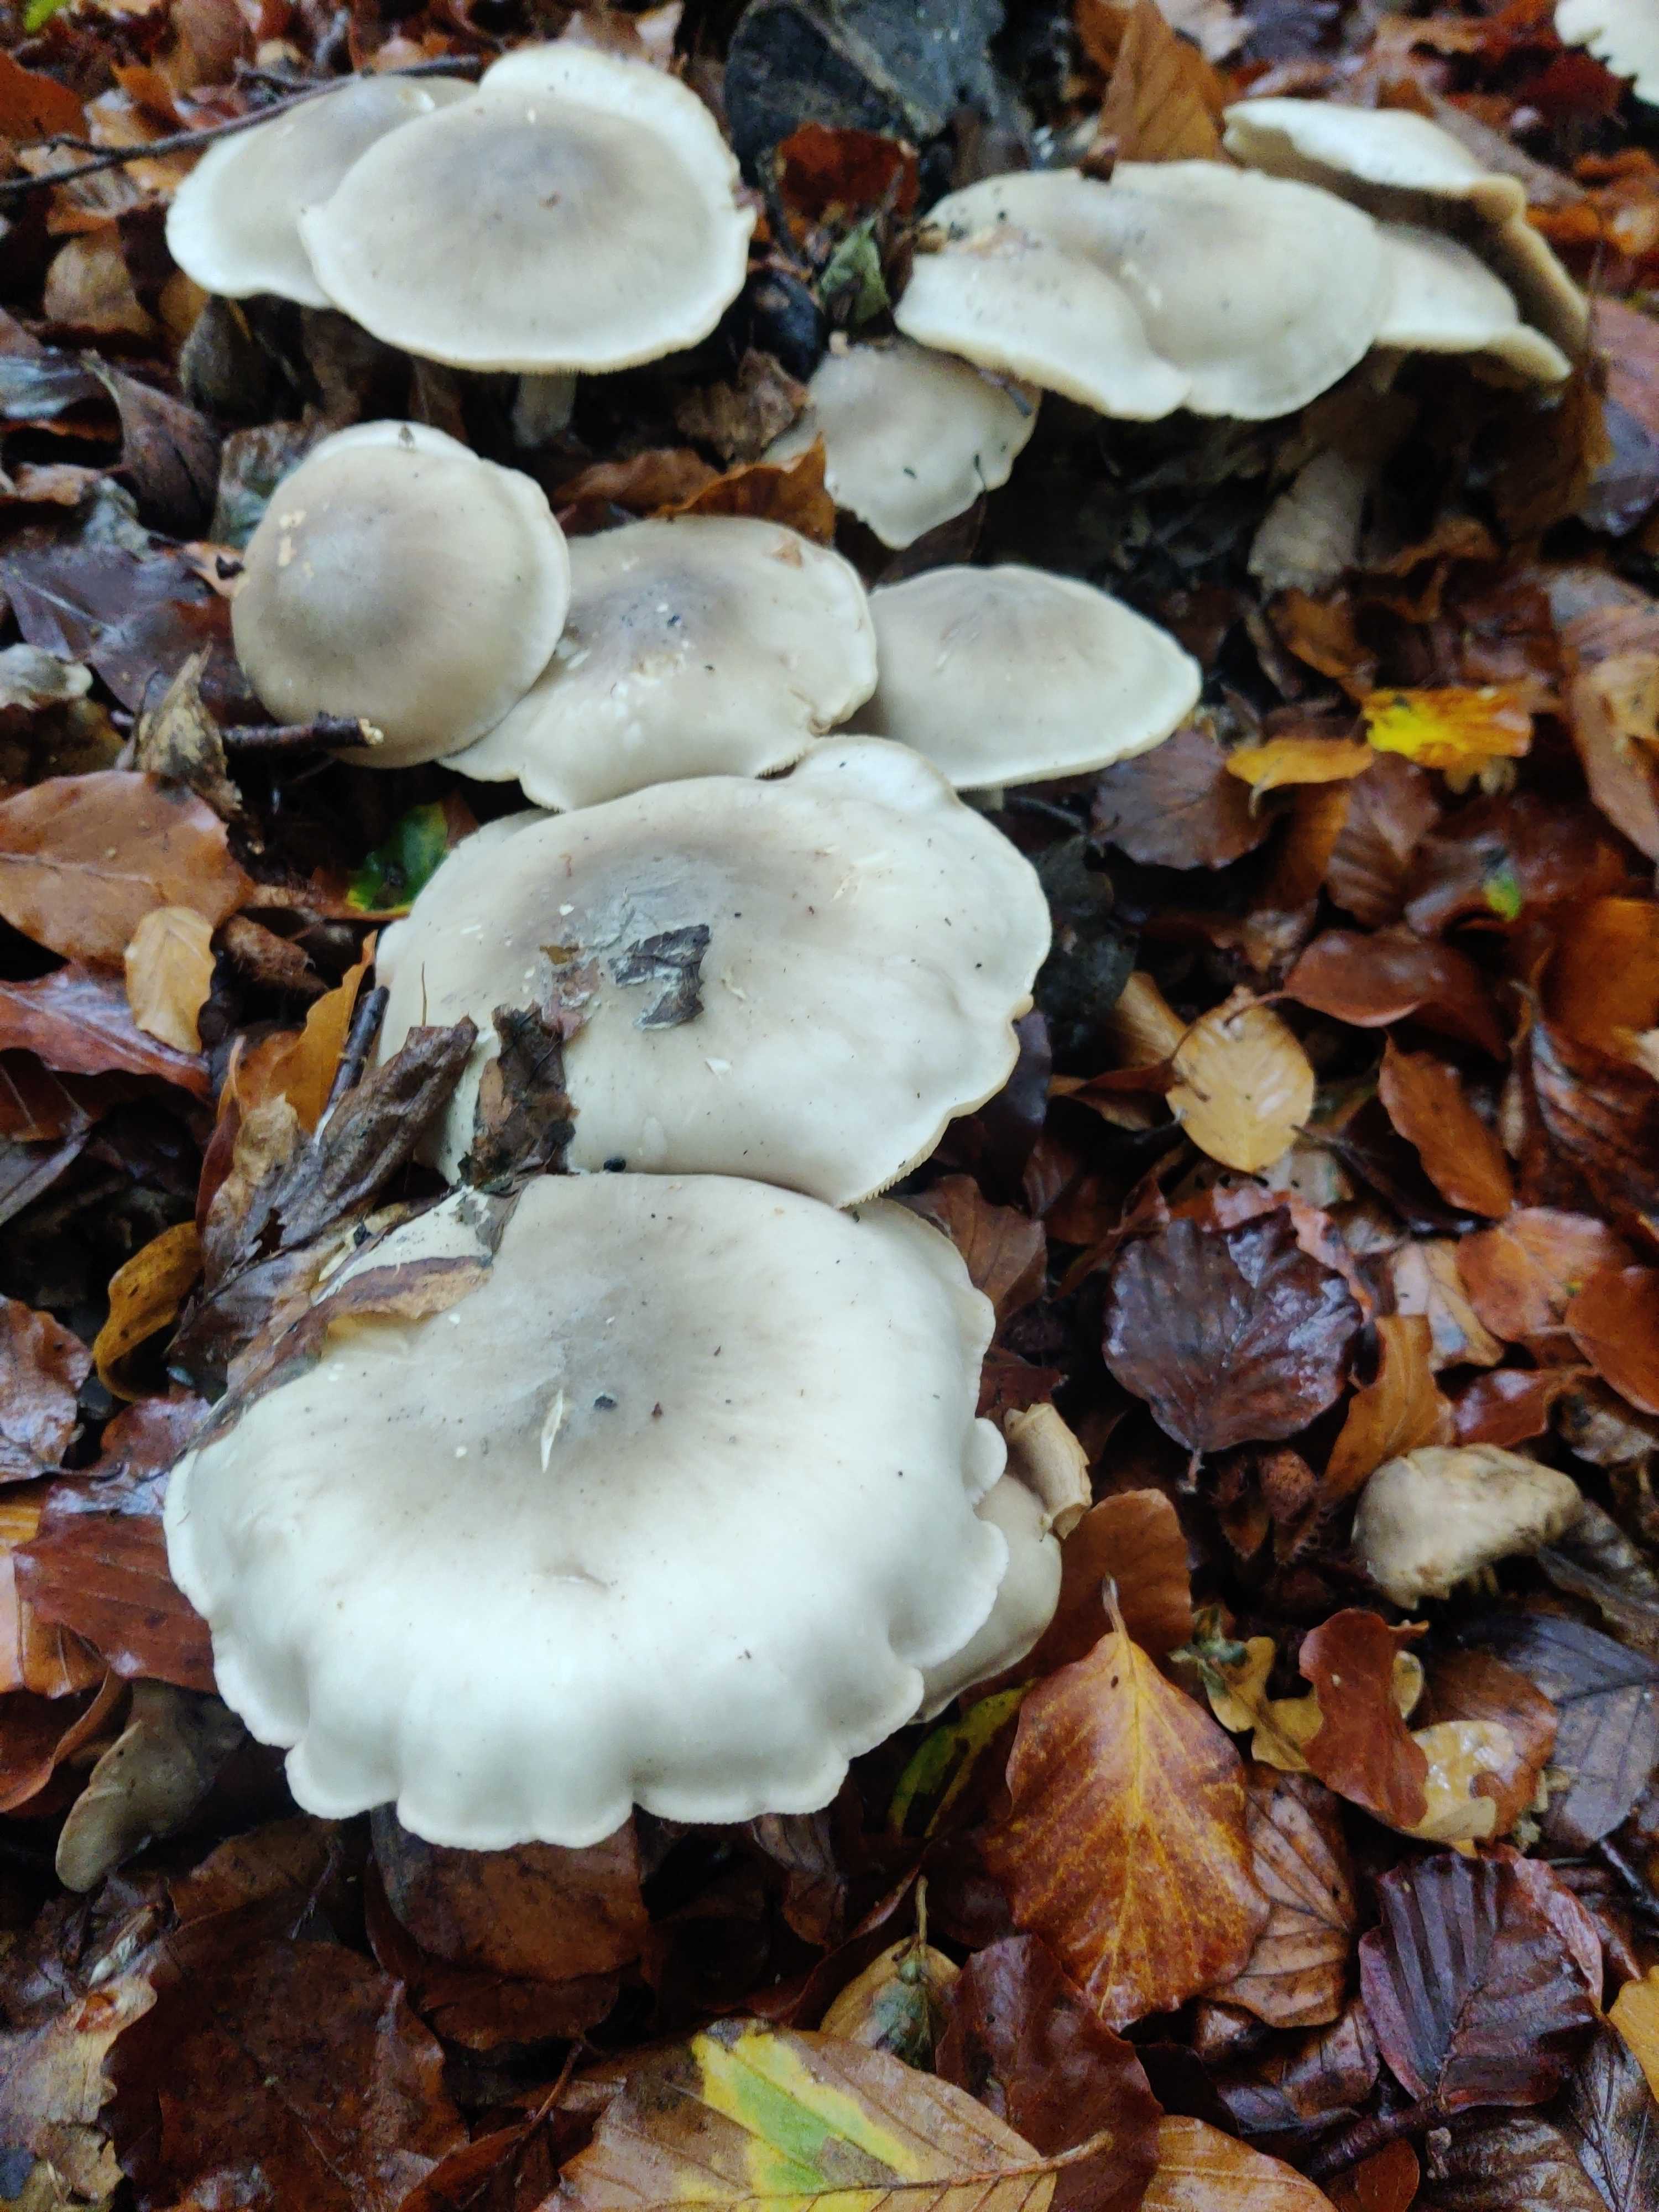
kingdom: Fungi
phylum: Basidiomycota
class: Agaricomycetes
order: Agaricales
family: Tricholomataceae
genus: Clitocybe
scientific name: Clitocybe nebularis
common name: tåge-tragthat
